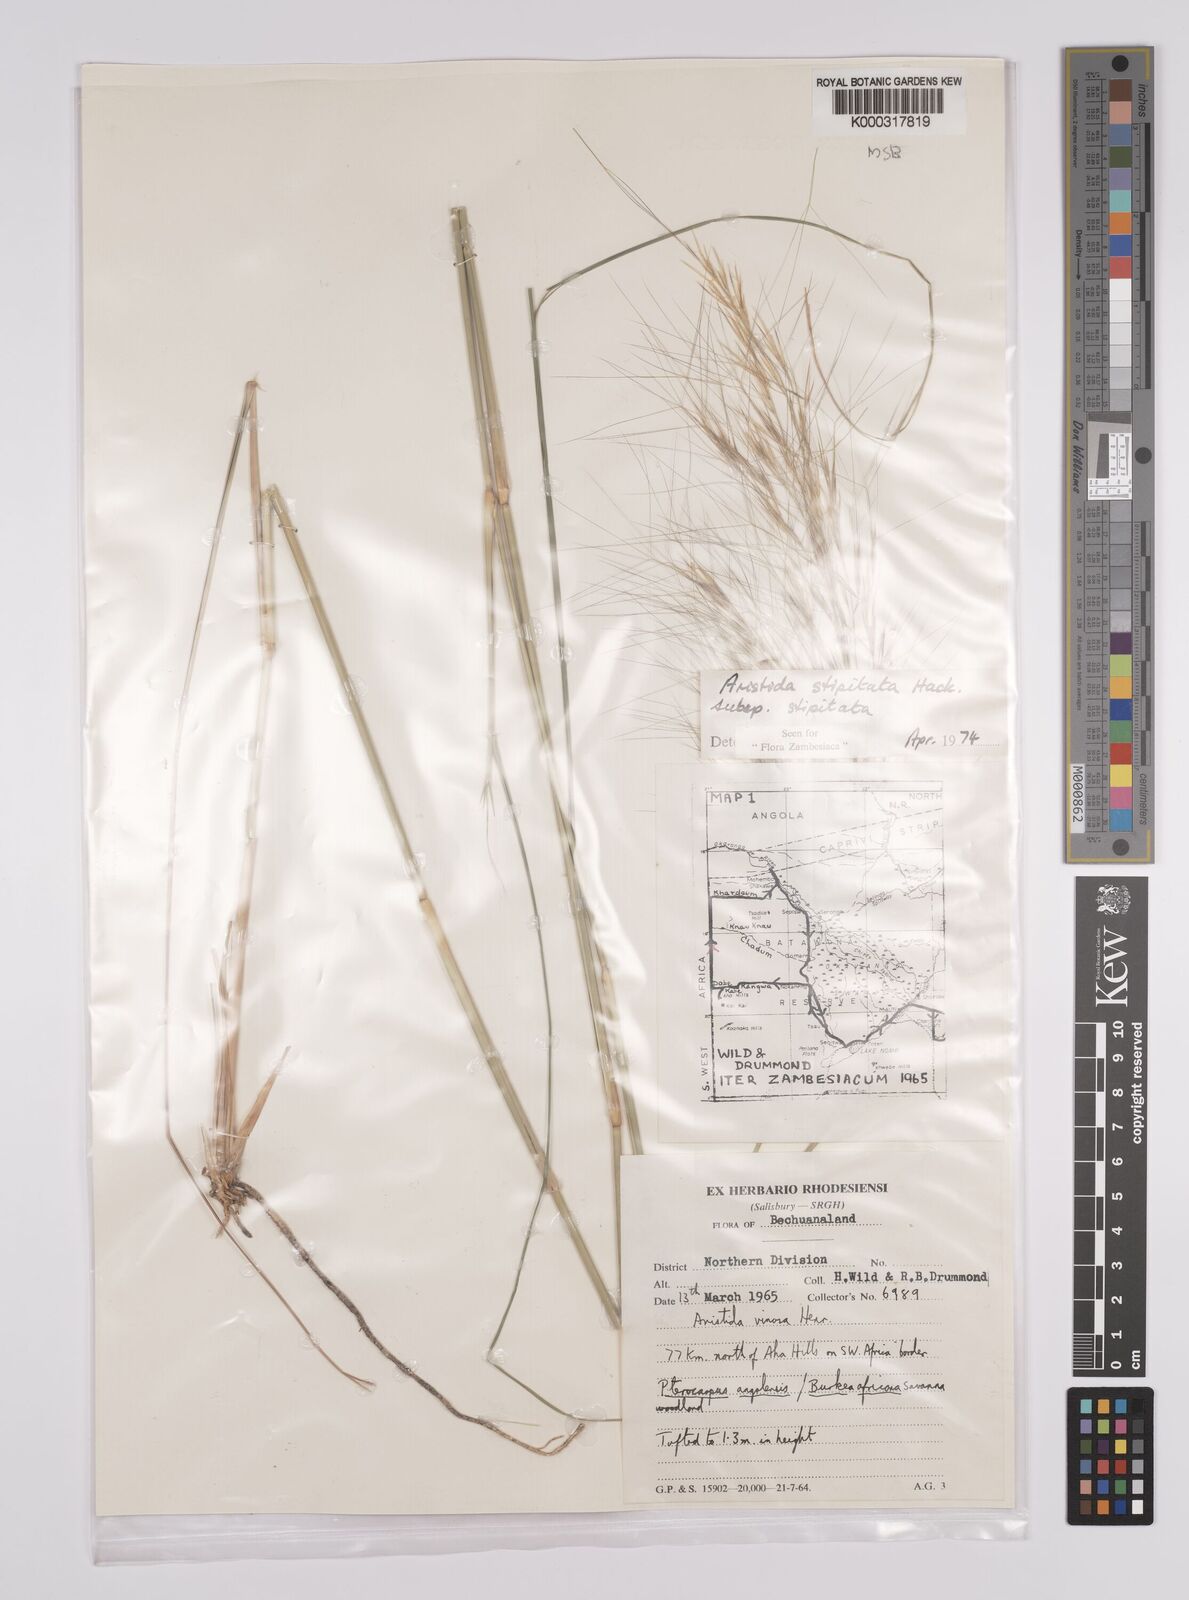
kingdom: Plantae
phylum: Tracheophyta
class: Liliopsida
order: Poales
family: Poaceae
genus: Aristida
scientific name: Aristida stipitata
